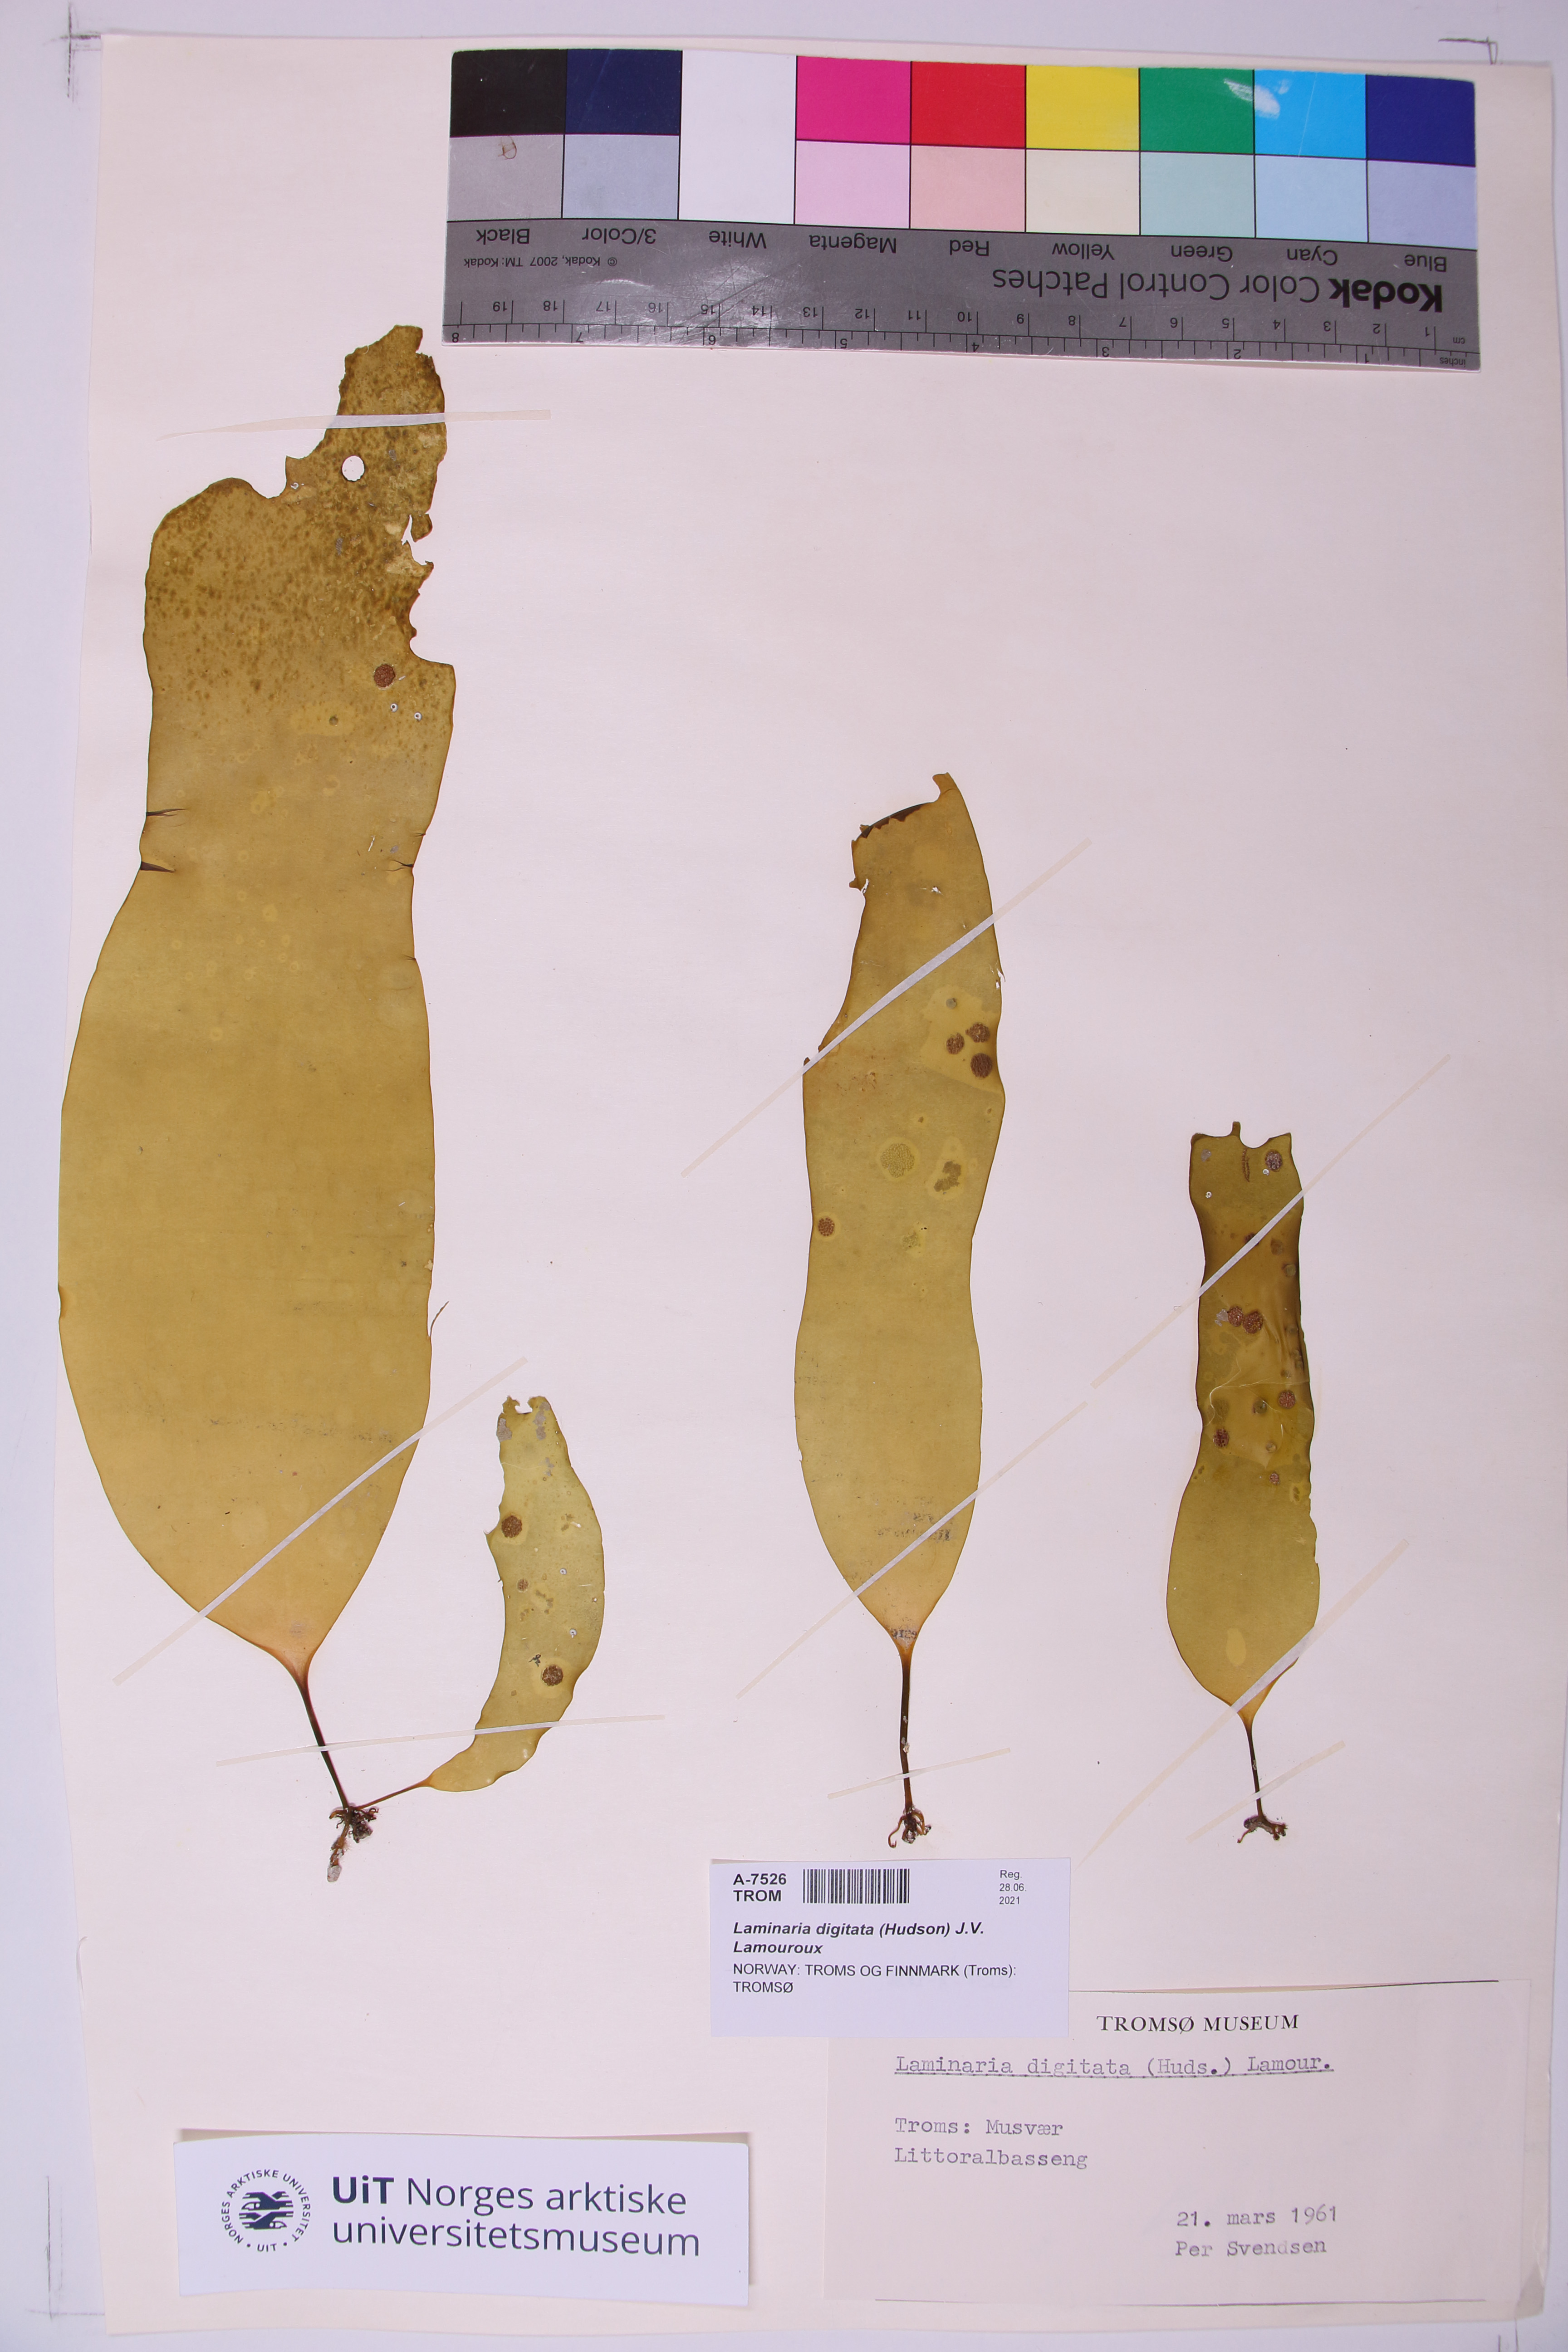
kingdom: Chromista
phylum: Ochrophyta
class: Phaeophyceae
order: Laminariales
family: Laminariaceae
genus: Laminaria
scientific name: Laminaria digitata
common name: Oarweed
